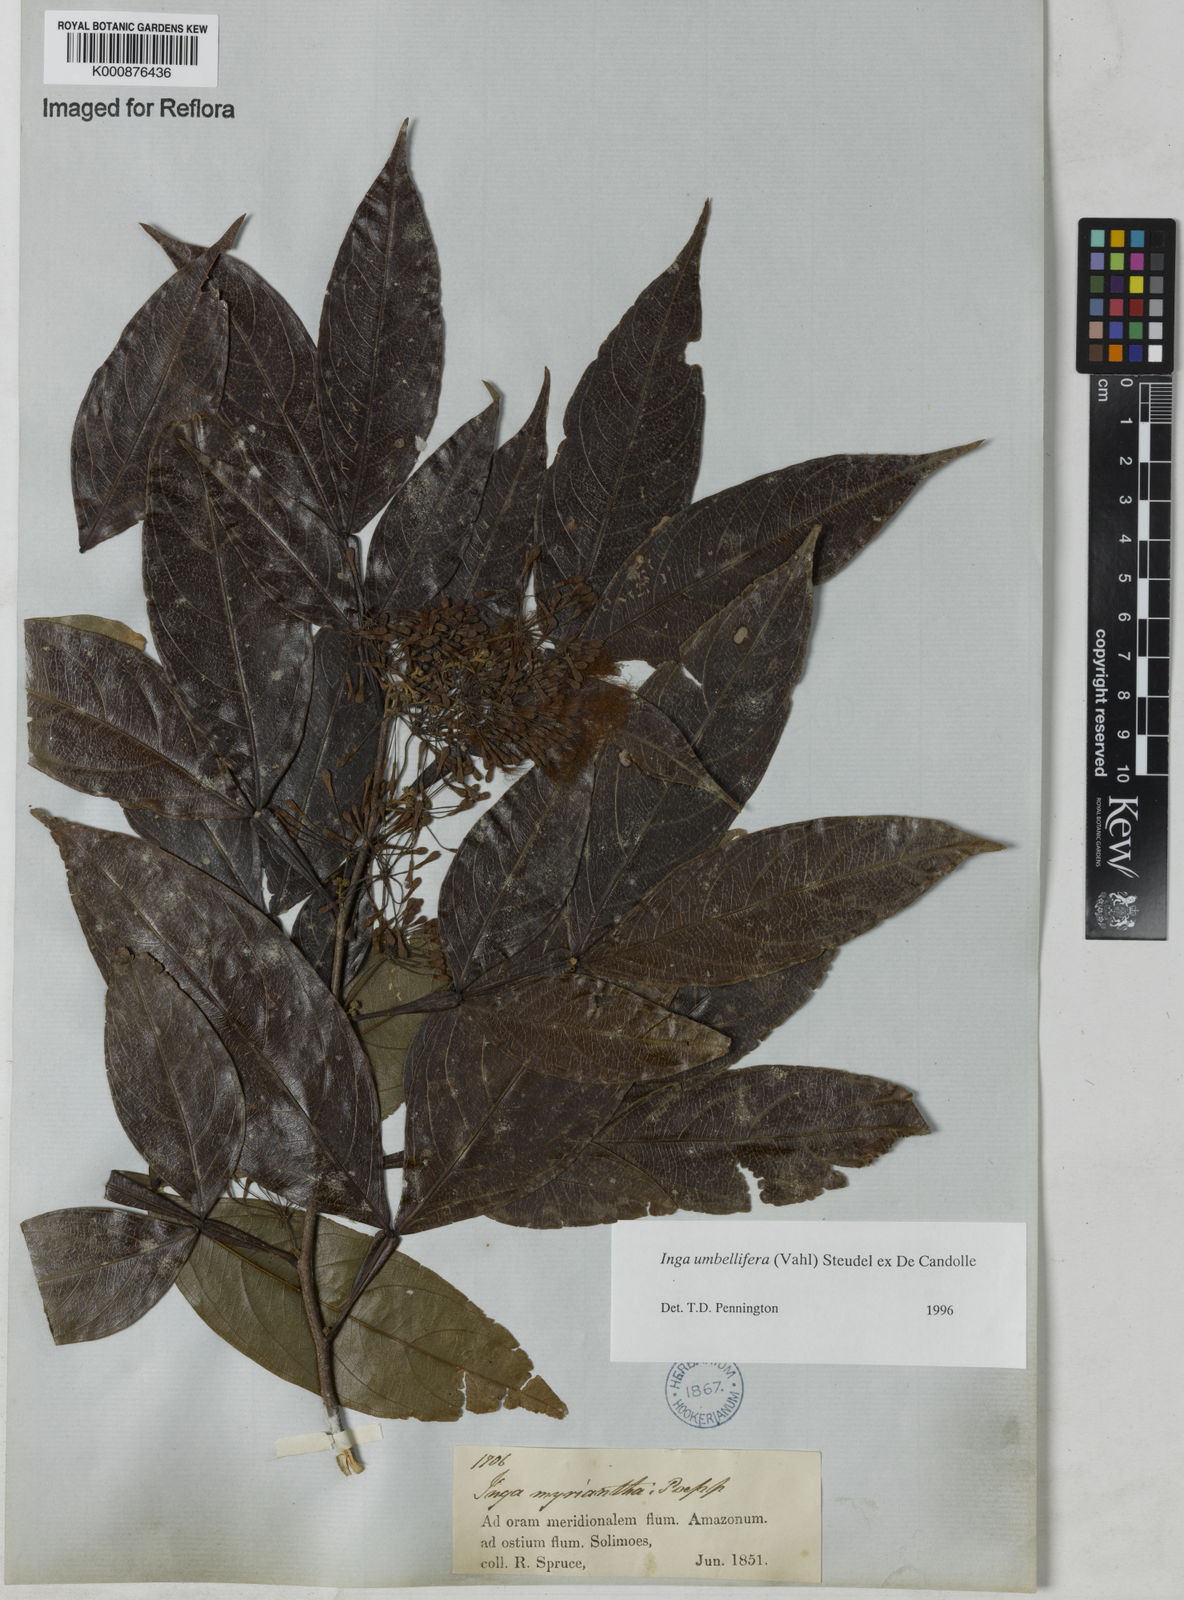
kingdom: Plantae
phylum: Tracheophyta
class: Magnoliopsida
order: Fabales
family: Fabaceae
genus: Inga
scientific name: Inga umbellifera
